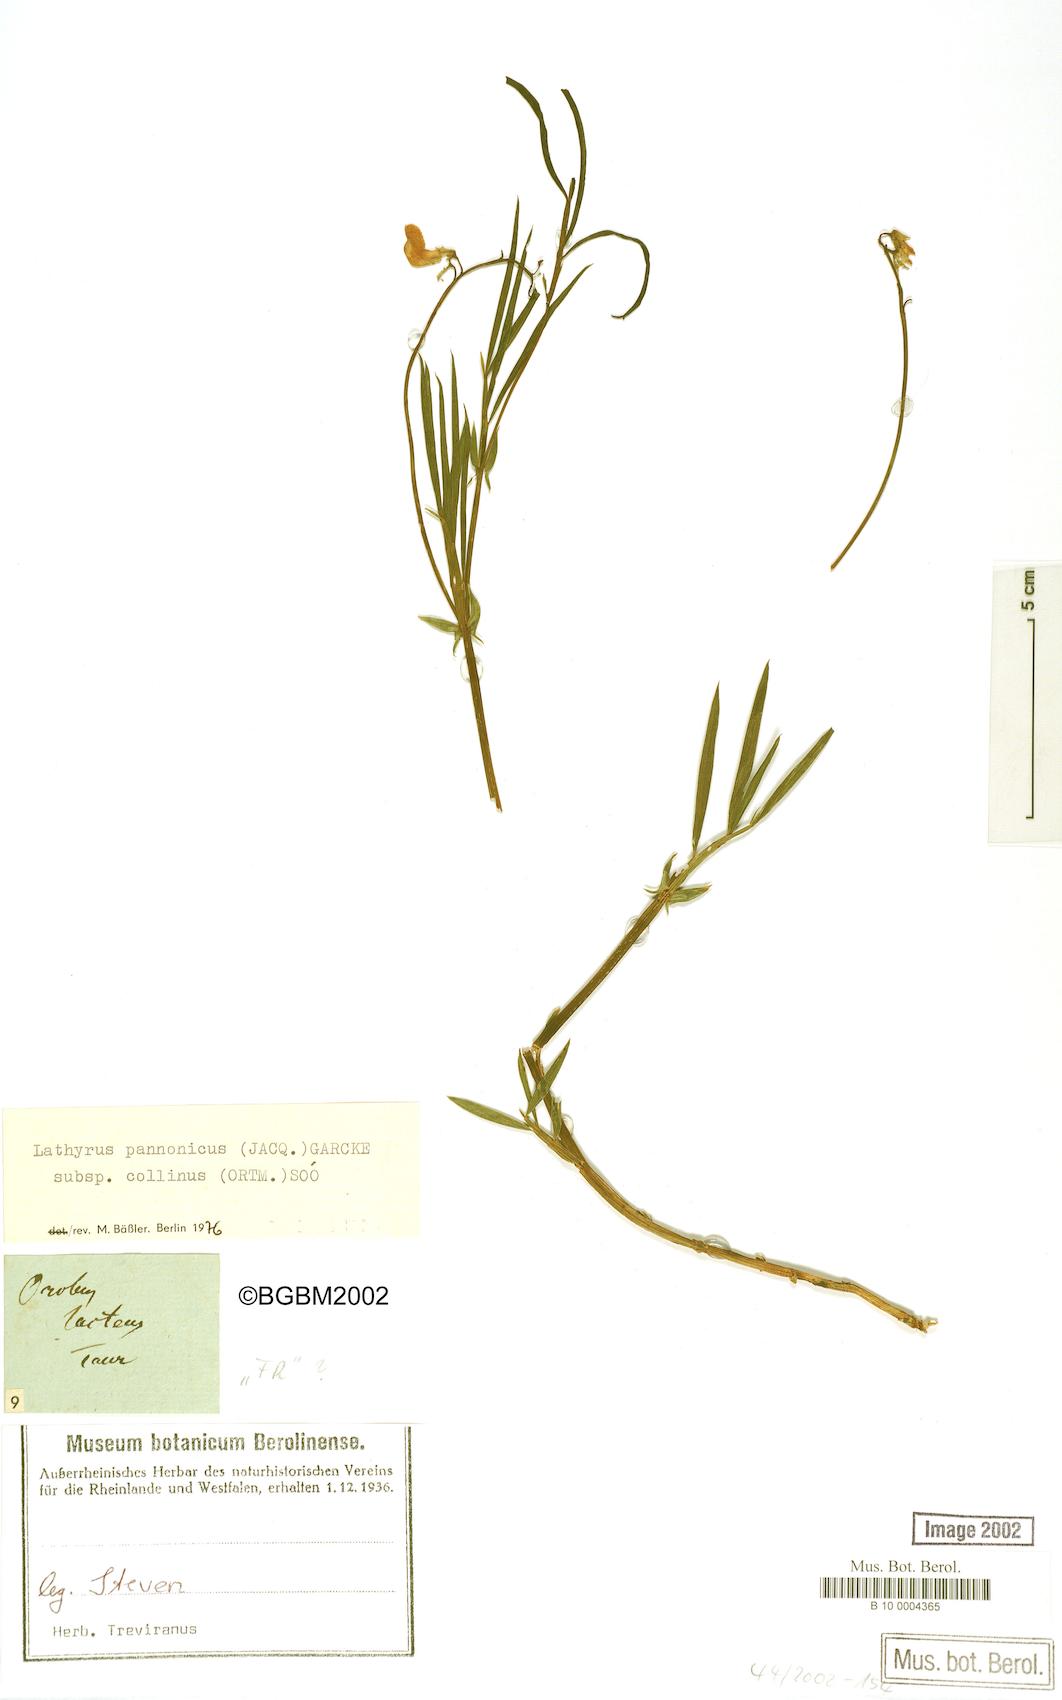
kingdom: Plantae
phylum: Tracheophyta
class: Magnoliopsida
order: Fabales
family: Fabaceae
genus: Lathyrus
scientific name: Lathyrus pannonicus
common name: Pea
